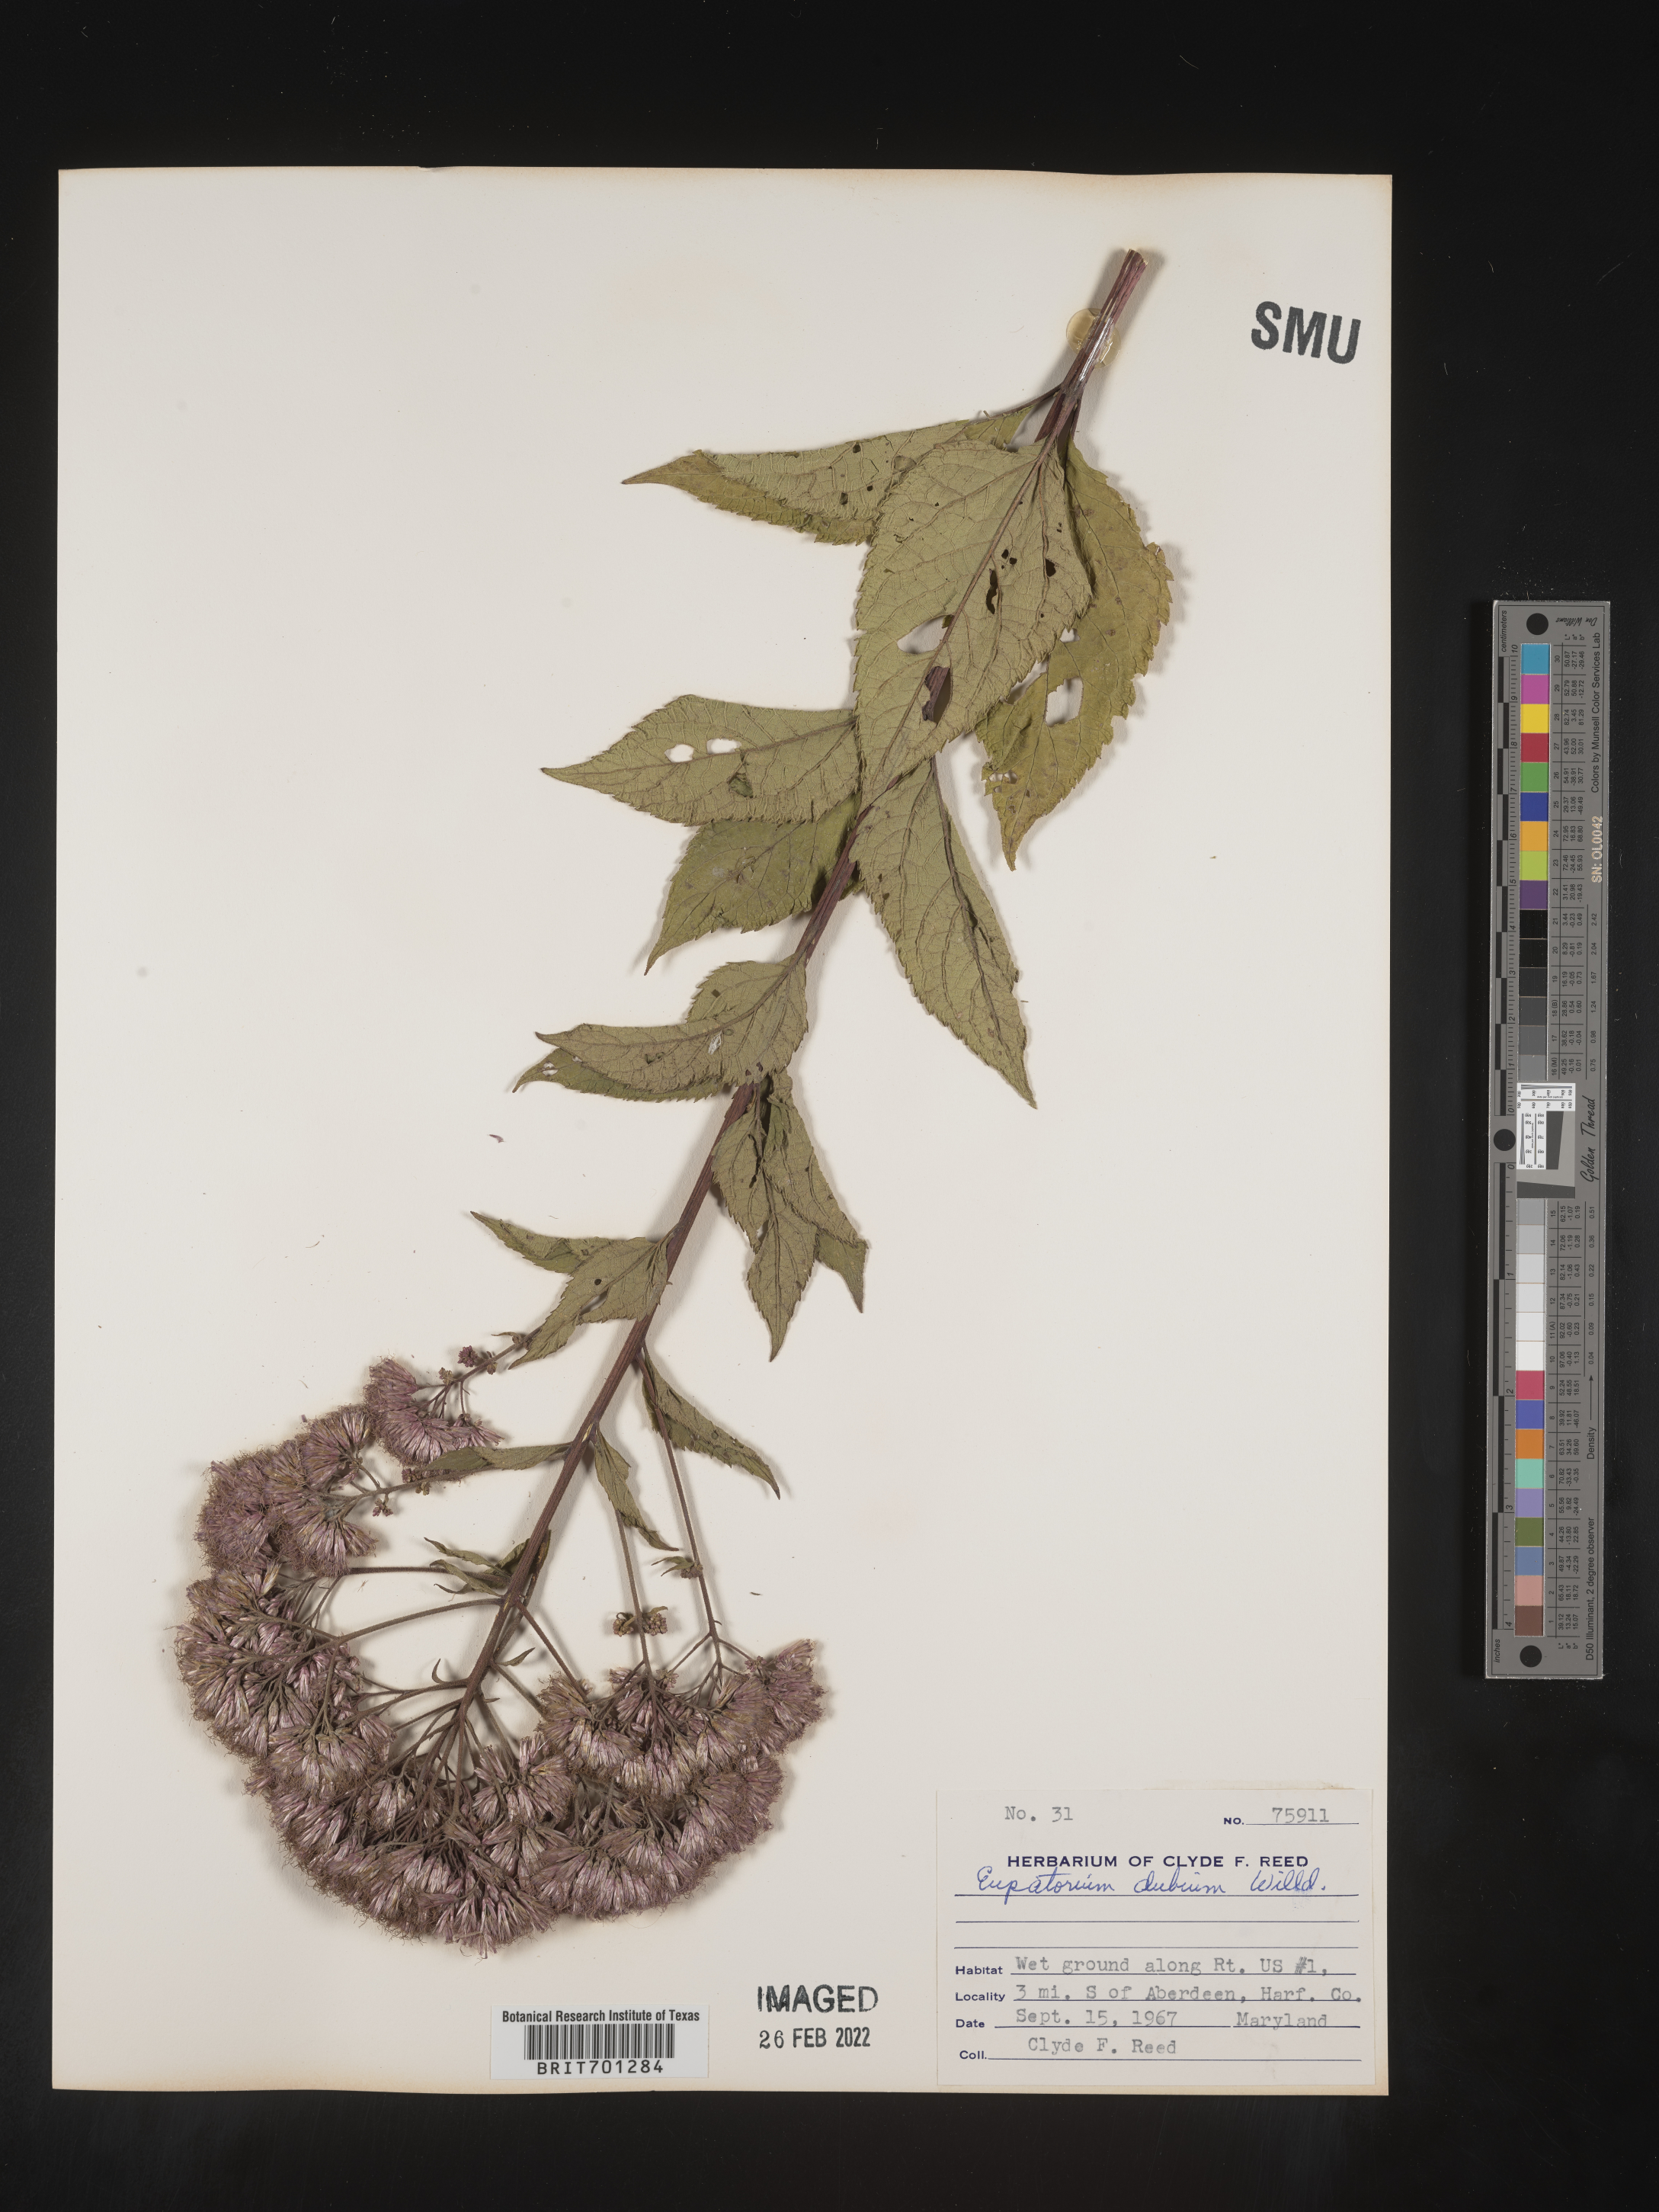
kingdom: Plantae
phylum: Tracheophyta
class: Magnoliopsida
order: Asterales
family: Asteraceae
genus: Eutrochium
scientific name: Eutrochium dubium
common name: Coastal plain joe pye weed
